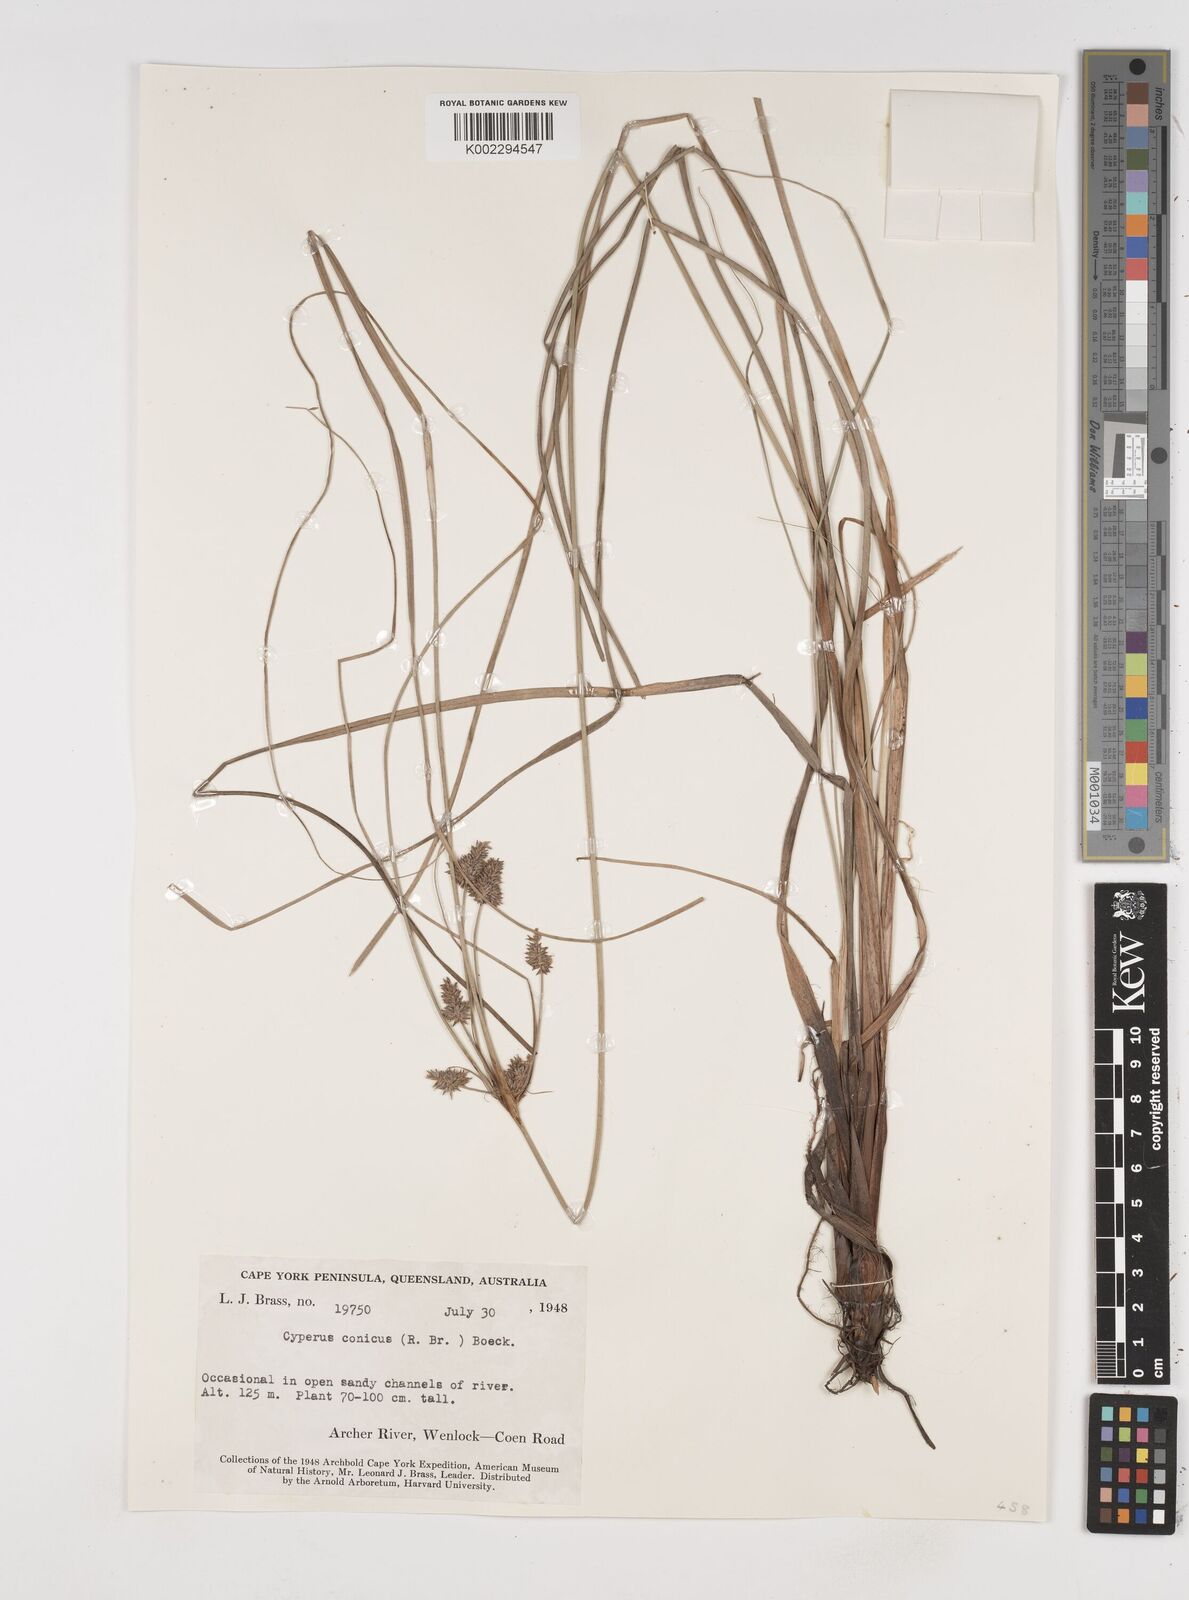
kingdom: Plantae
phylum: Tracheophyta
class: Liliopsida
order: Poales
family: Cyperaceae
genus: Cyperus
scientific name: Cyperus conicus
